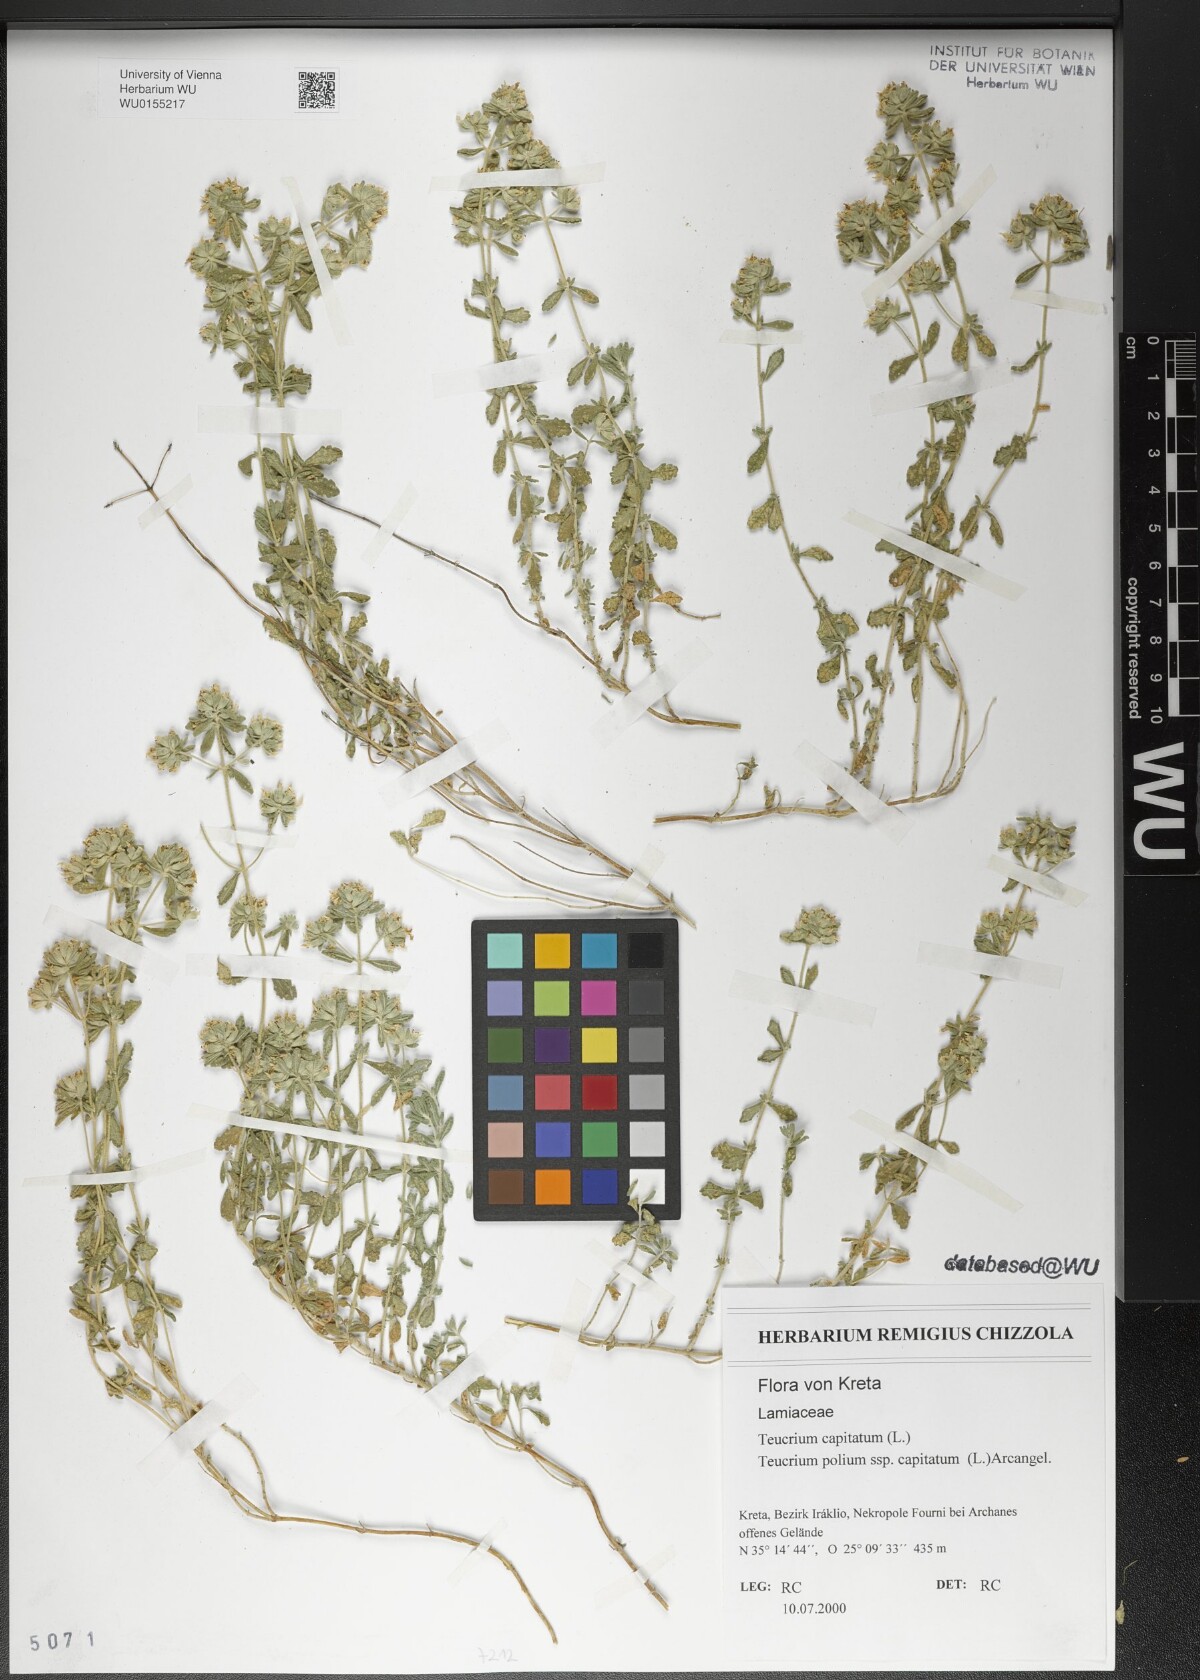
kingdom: Plantae
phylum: Tracheophyta
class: Magnoliopsida
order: Lamiales
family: Lamiaceae
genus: Teucrium
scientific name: Teucrium capitatum
